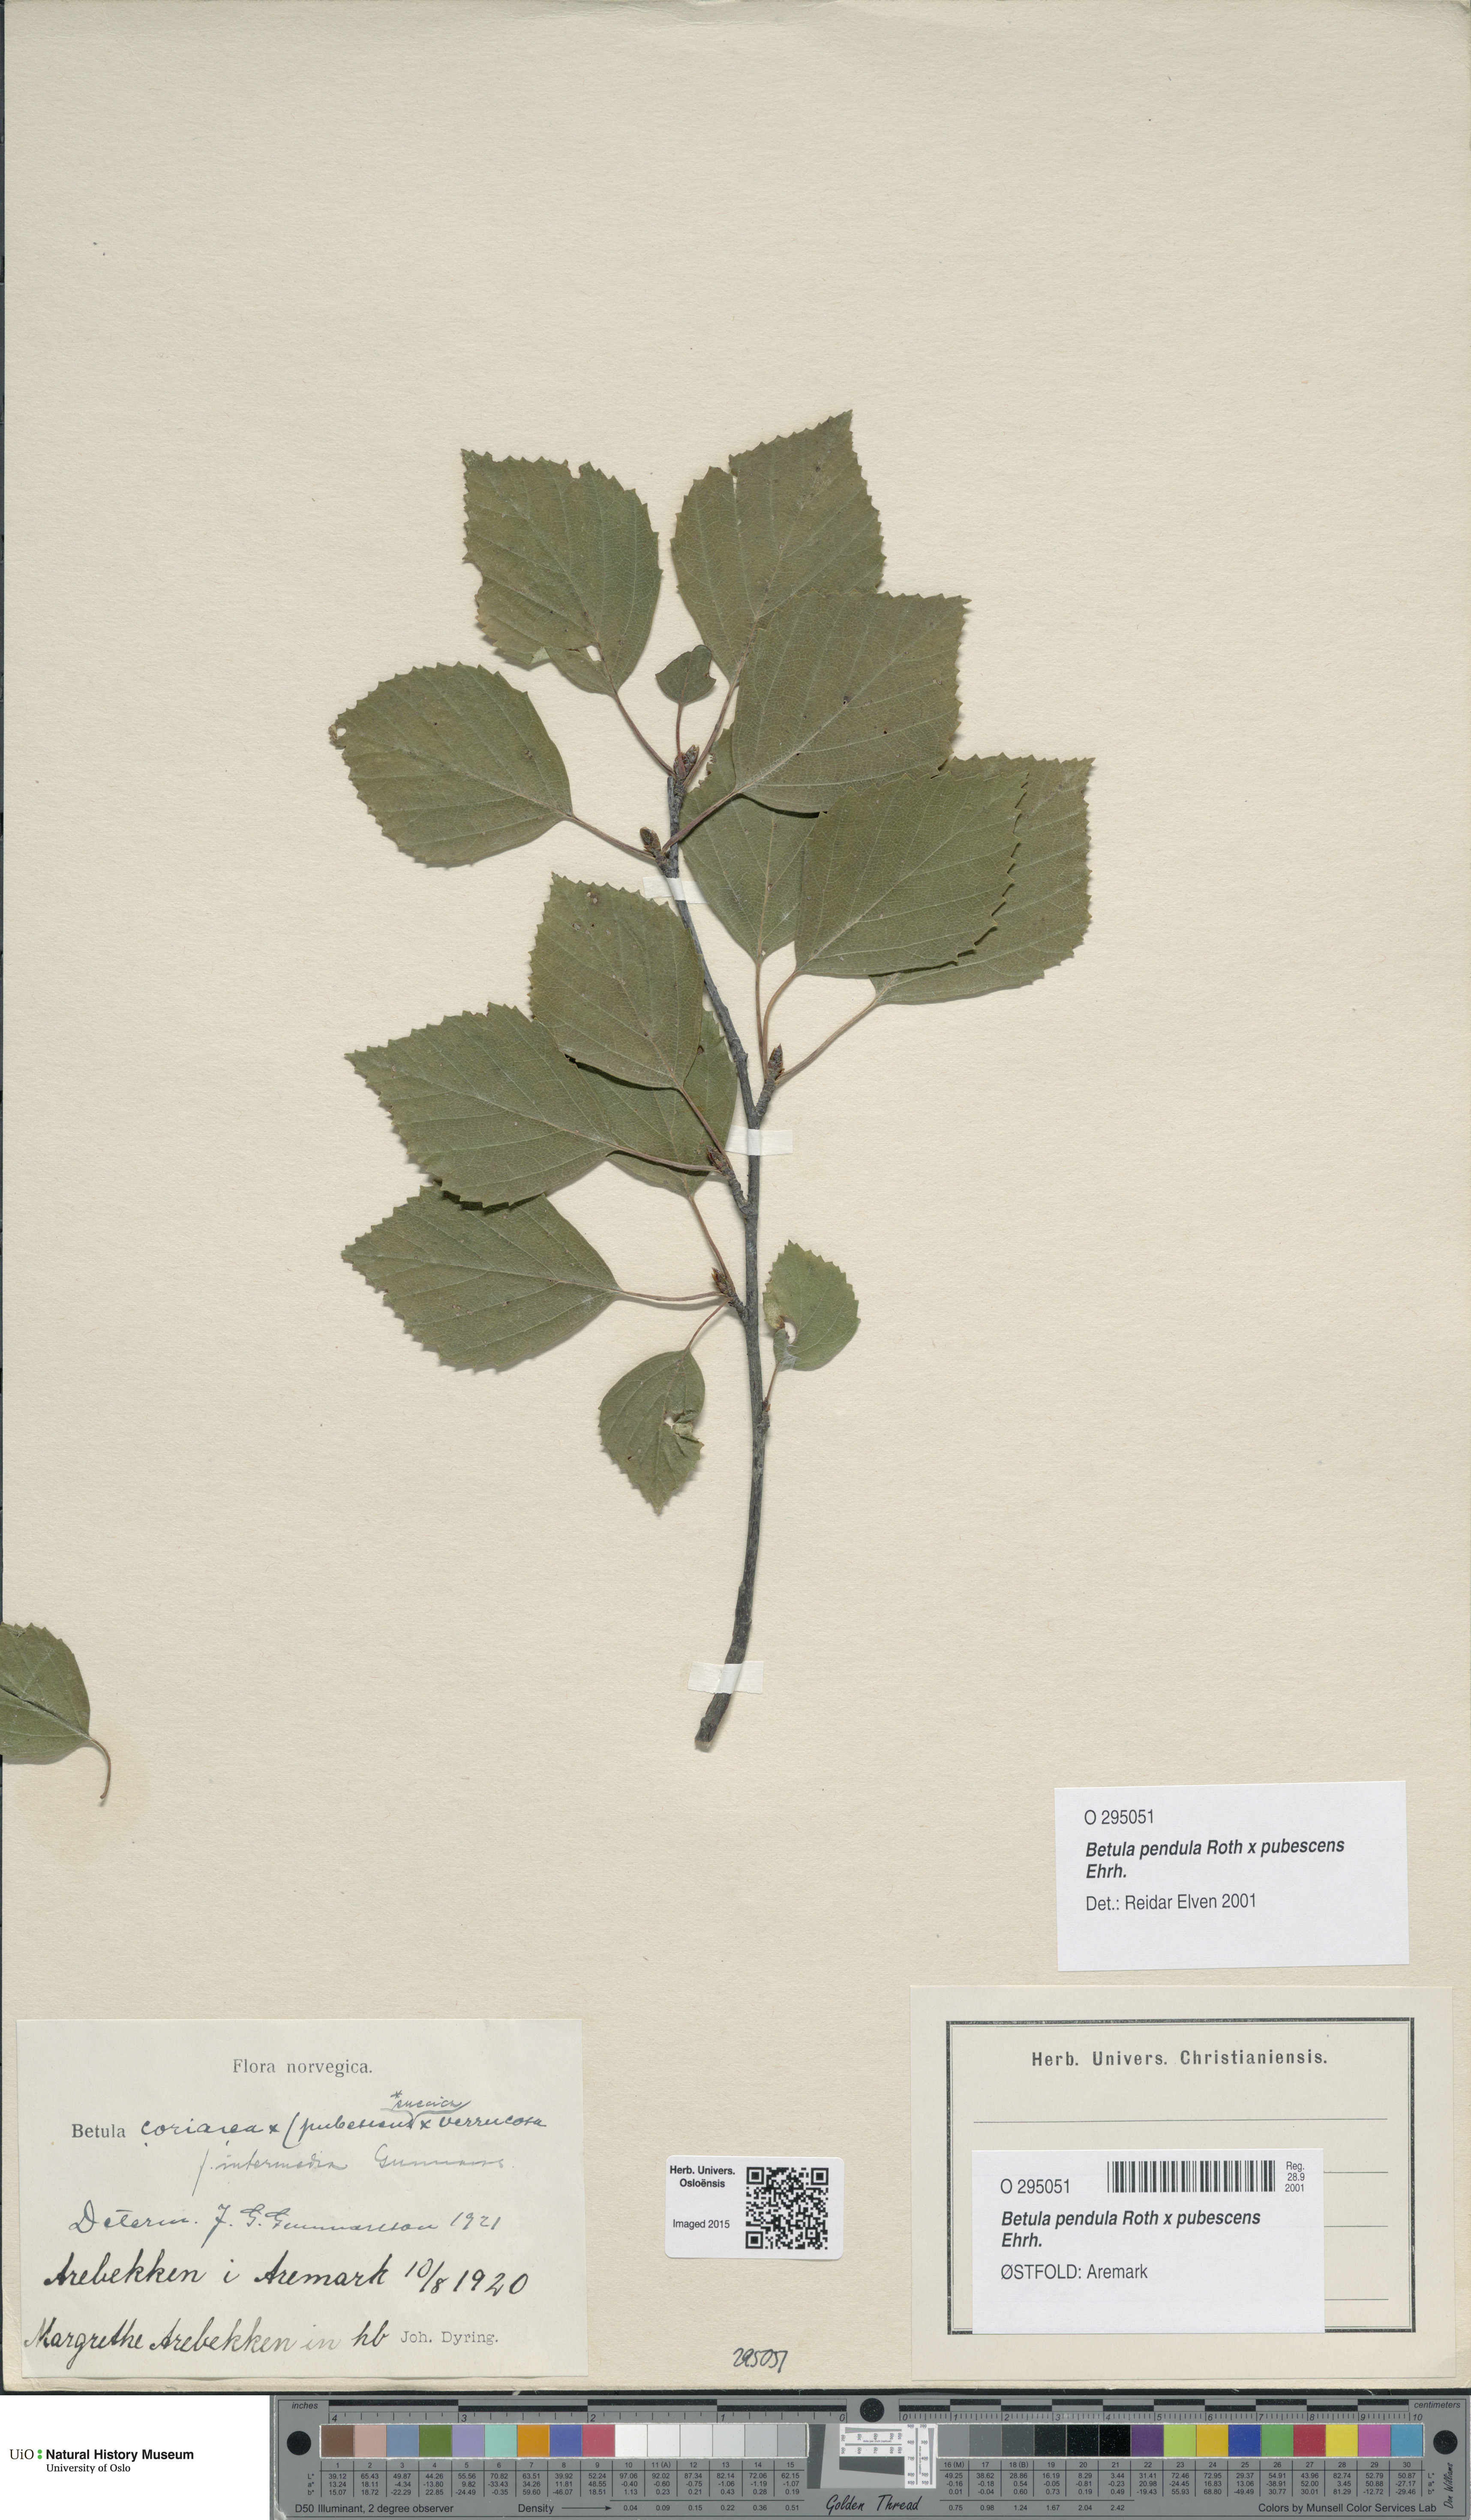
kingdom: Plantae
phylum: Tracheophyta
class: Magnoliopsida
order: Fagales
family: Betulaceae
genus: Betula
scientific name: Betula
